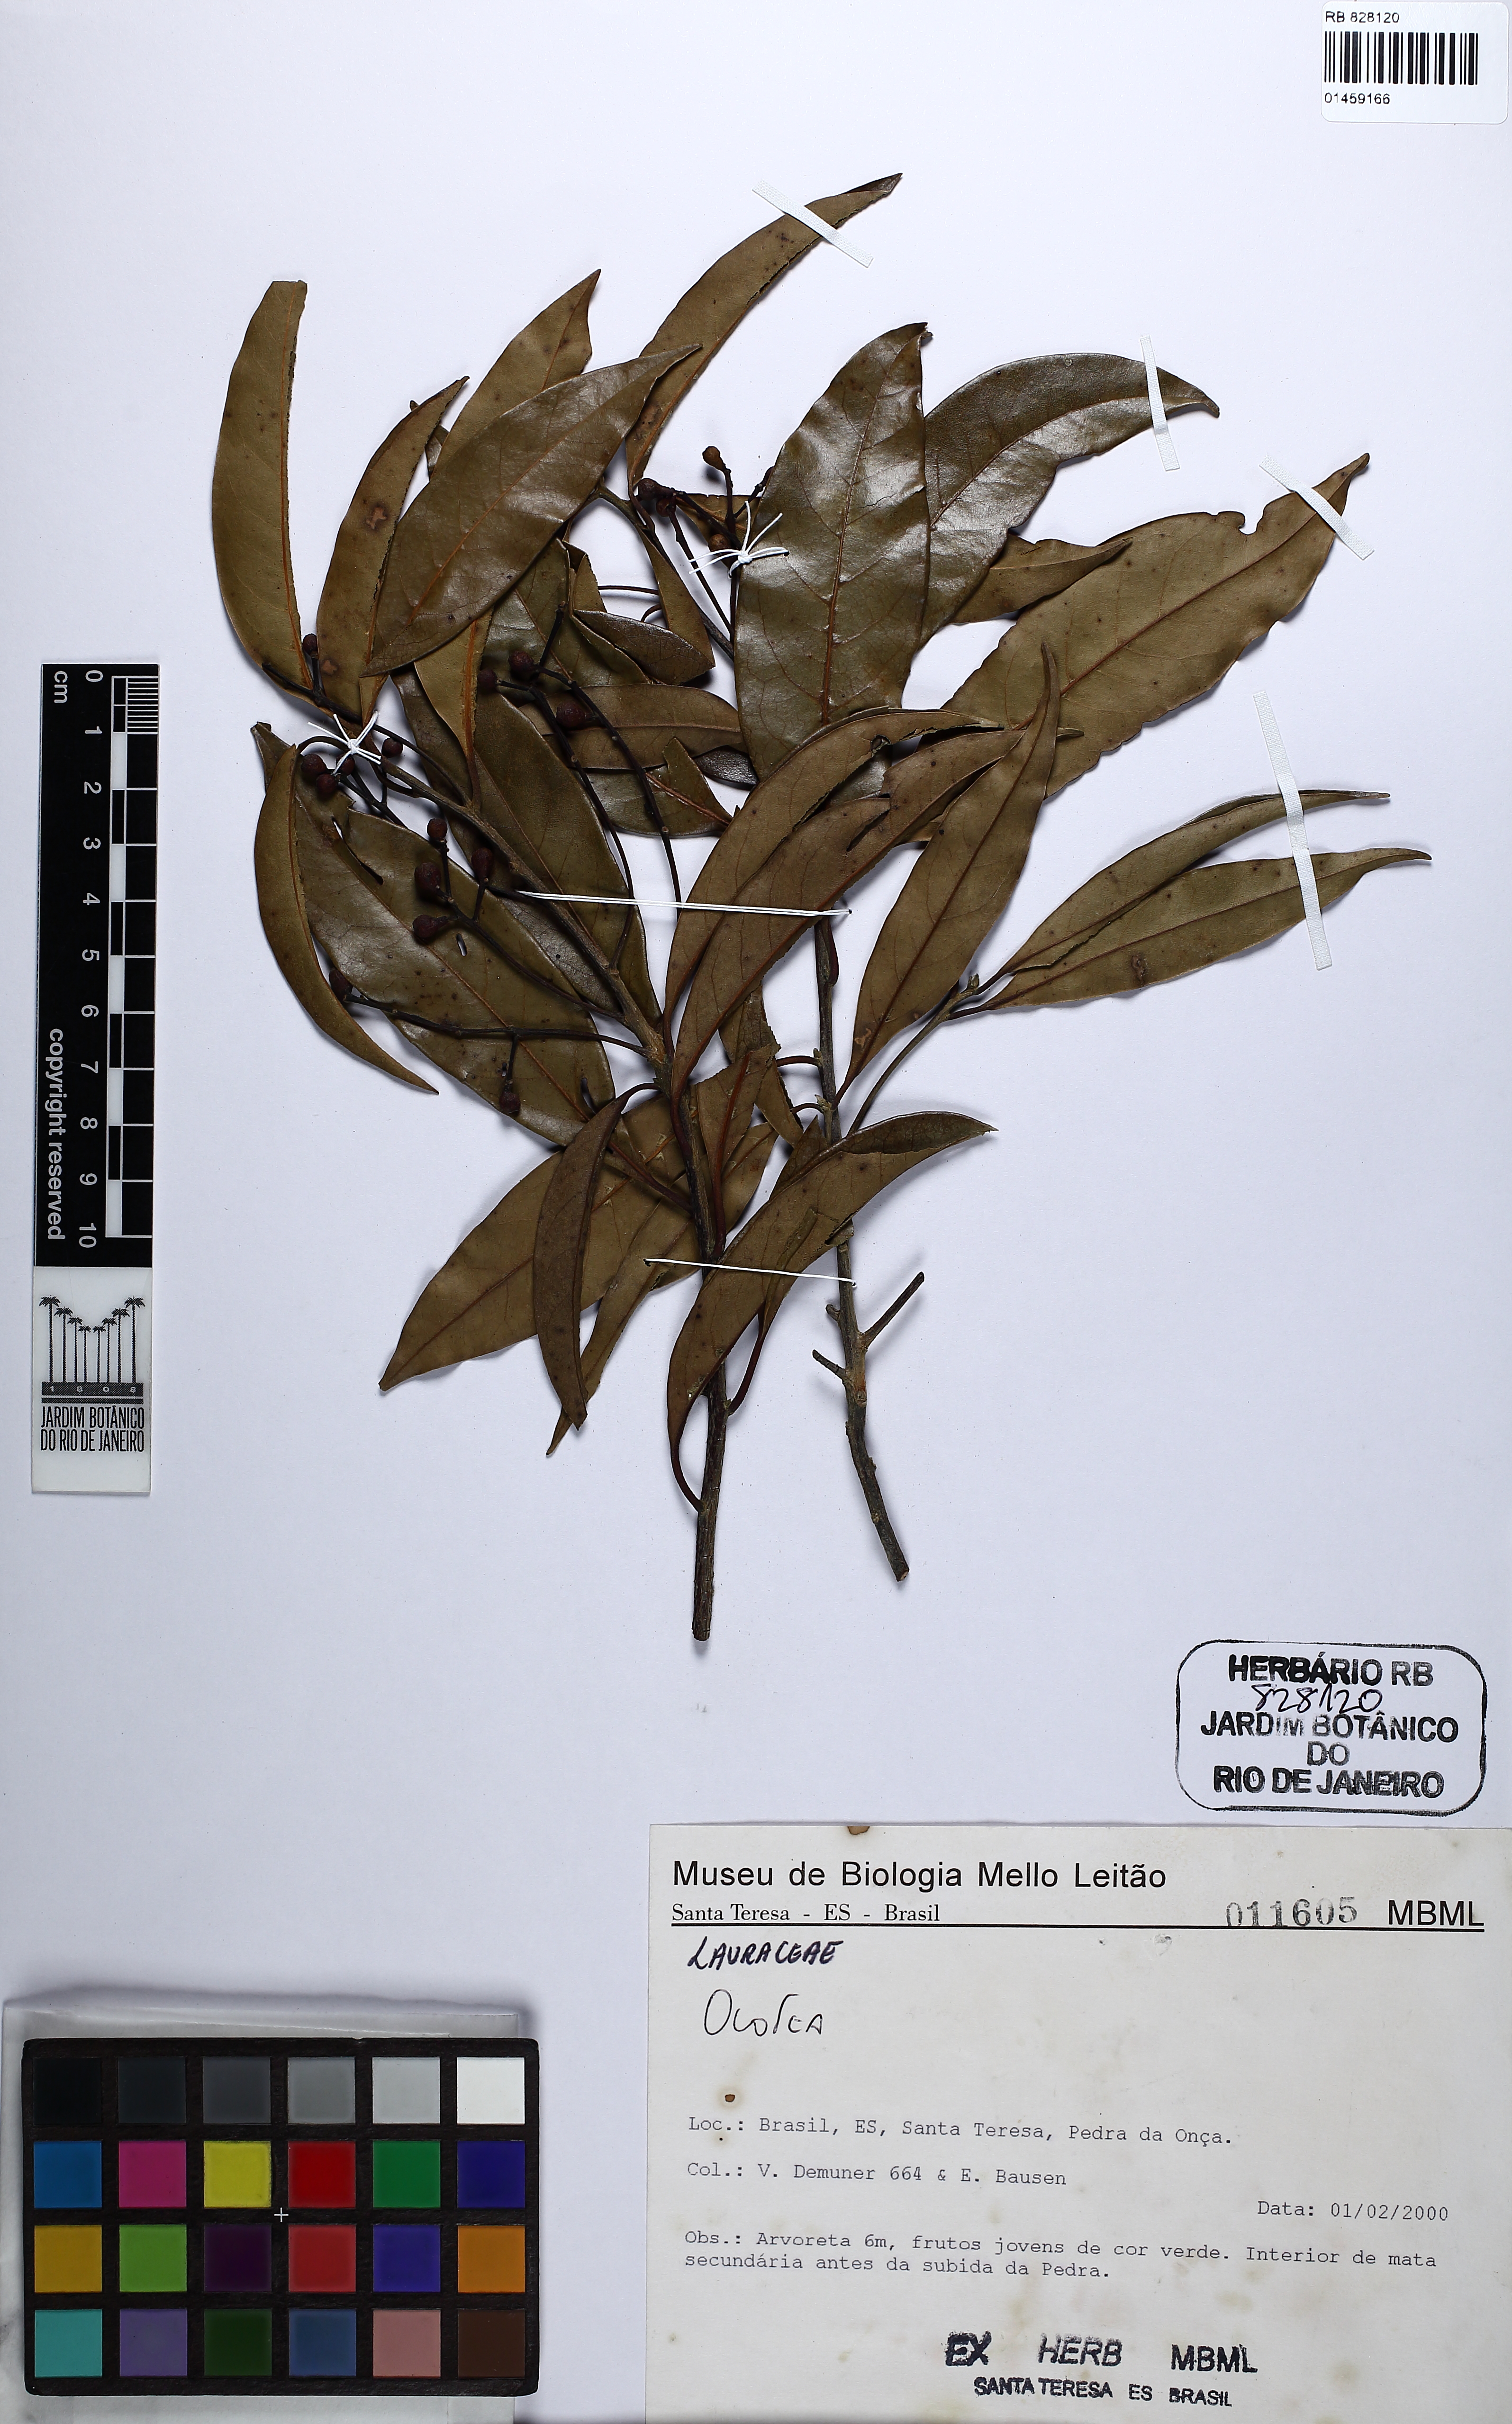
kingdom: Plantae
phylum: Tracheophyta
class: Magnoliopsida
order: Laurales
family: Lauraceae
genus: Ocotea
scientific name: Ocotea
